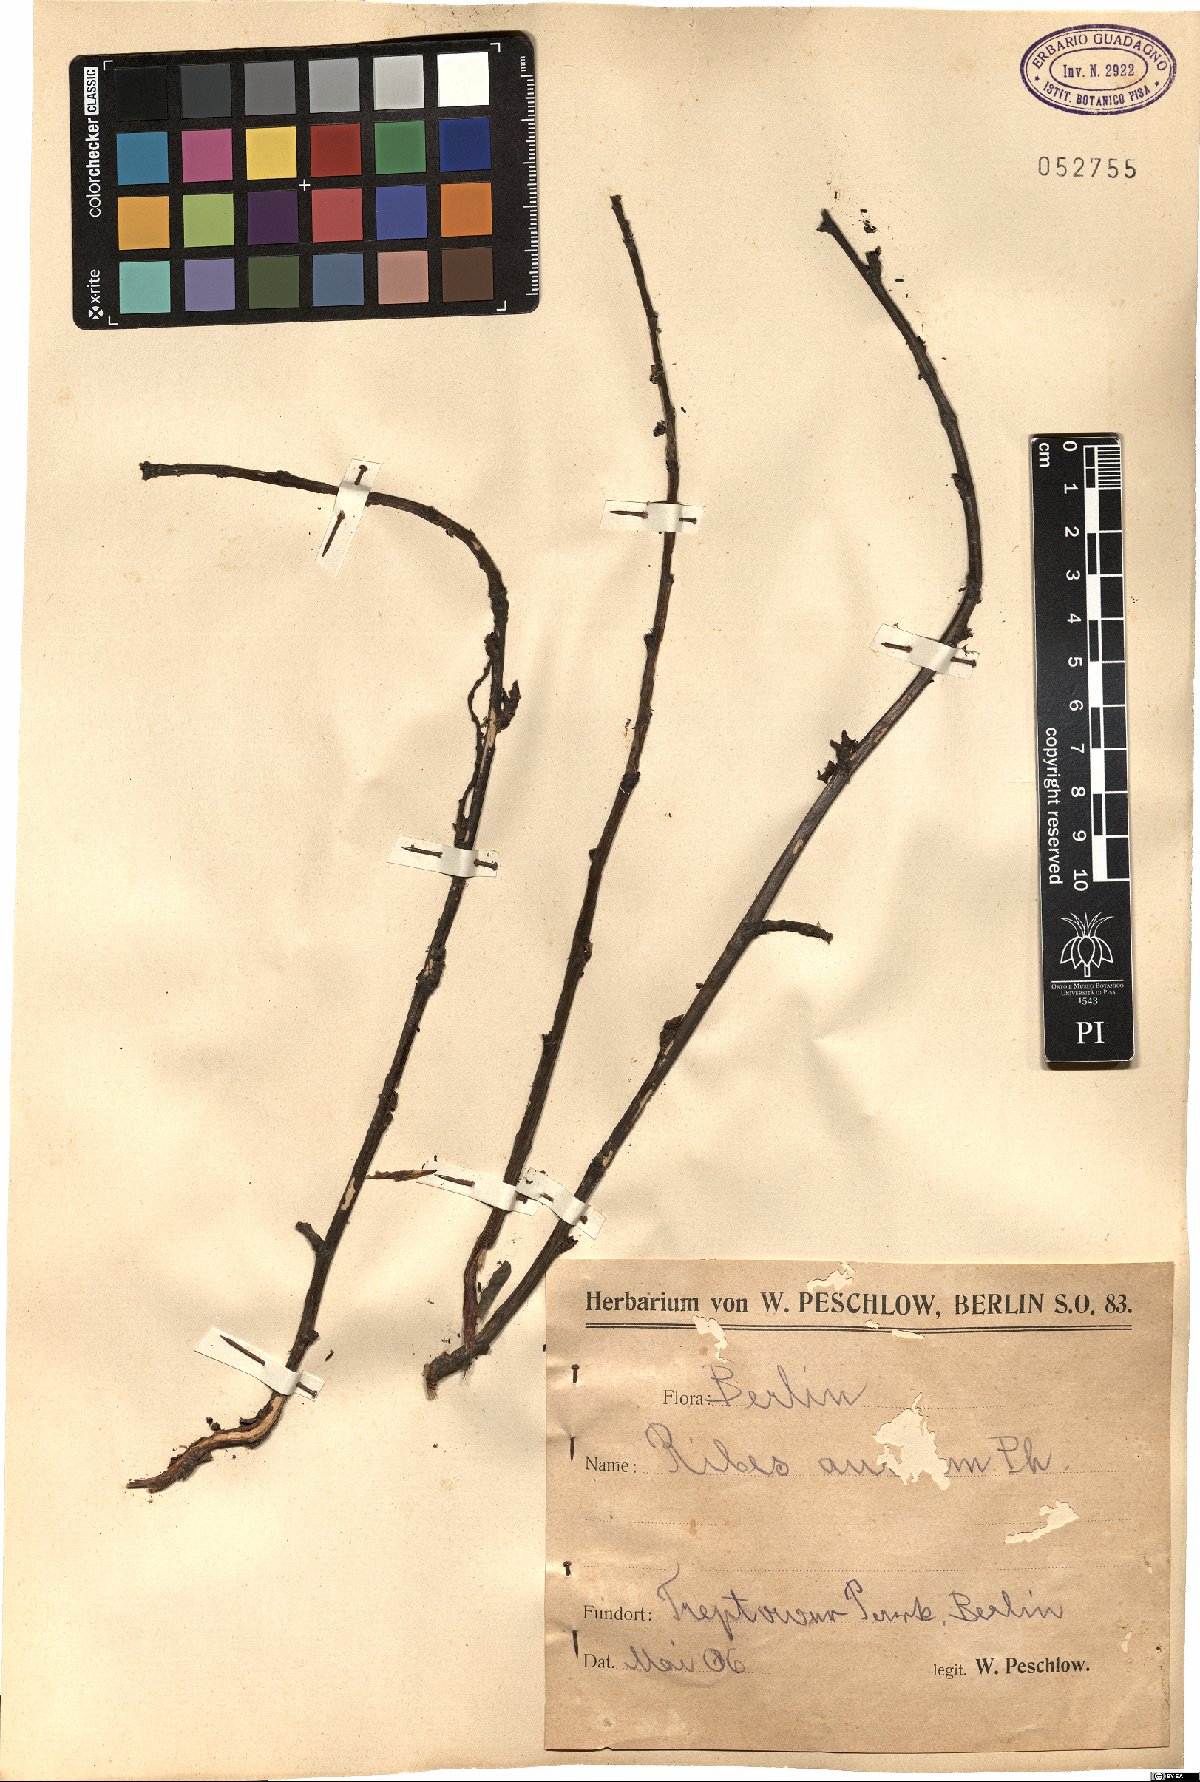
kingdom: Plantae
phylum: Tracheophyta
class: Magnoliopsida
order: Saxifragales
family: Grossulariaceae
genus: Ribes
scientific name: Ribes aureum
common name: Golden currant
